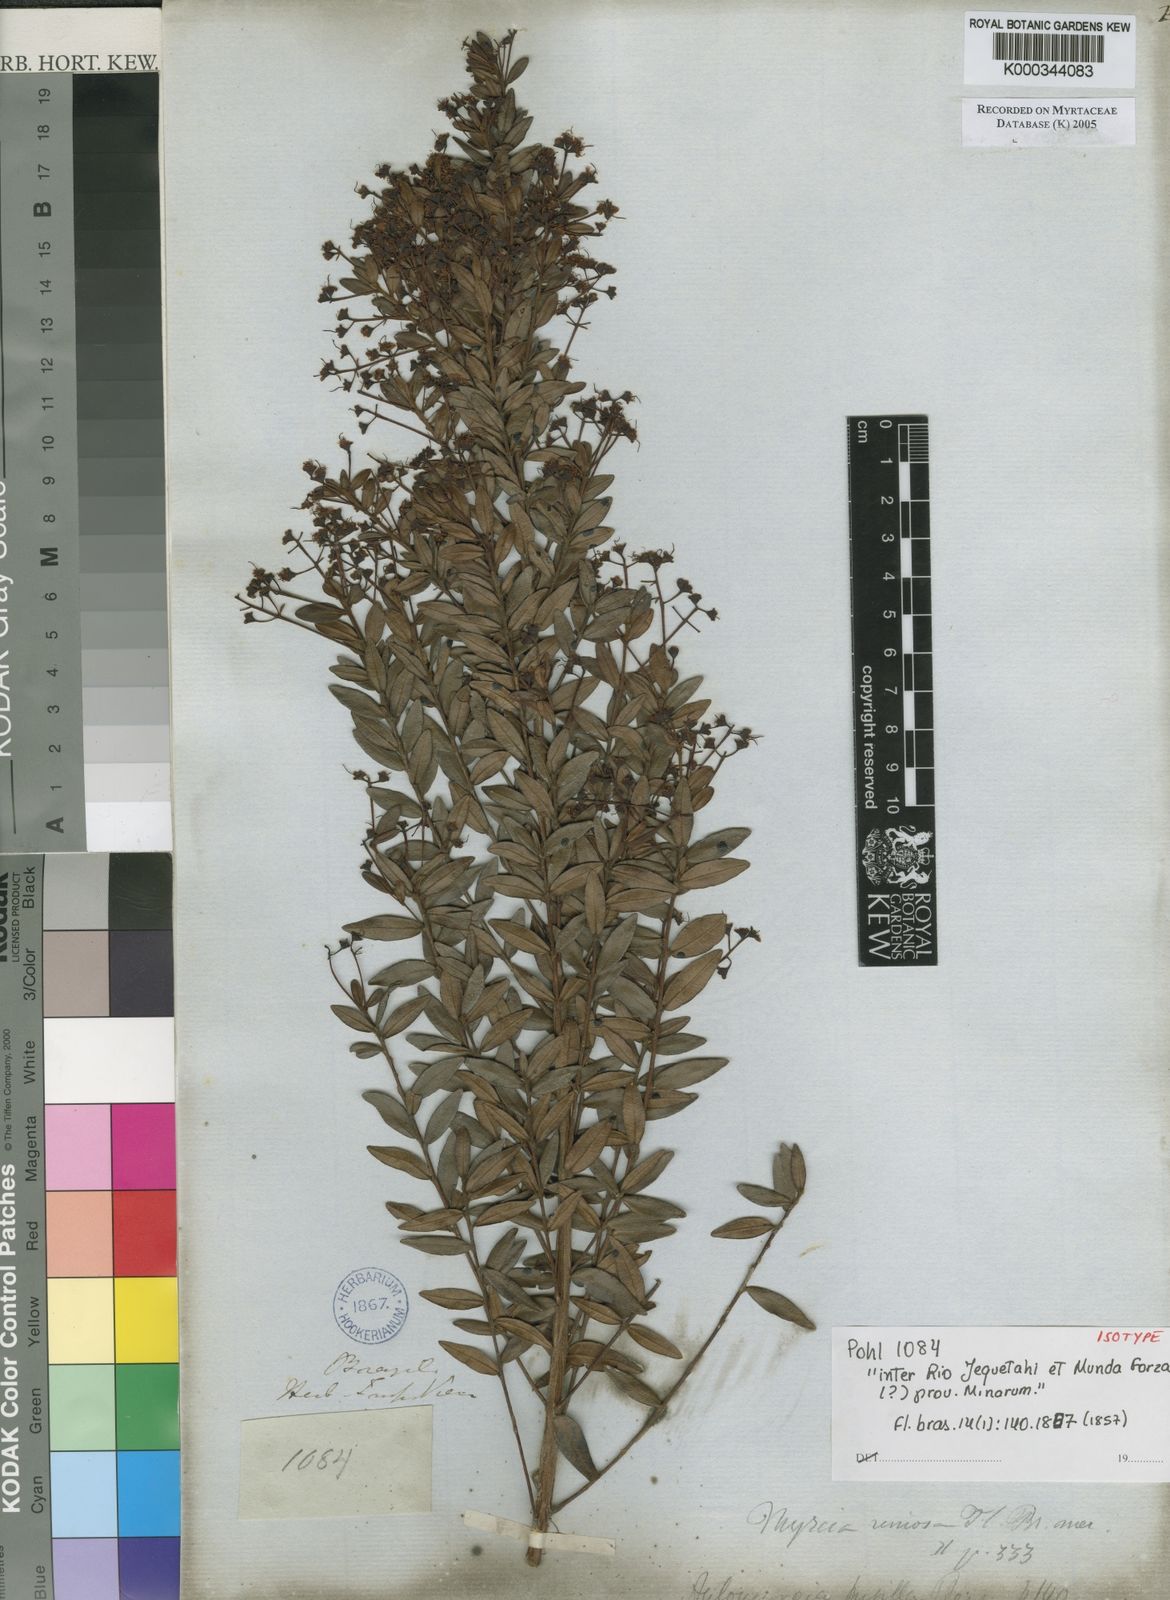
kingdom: Plantae
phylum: Tracheophyta
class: Magnoliopsida
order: Myrtales
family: Myrtaceae
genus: Myrcia
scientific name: Myrcia pusilla
